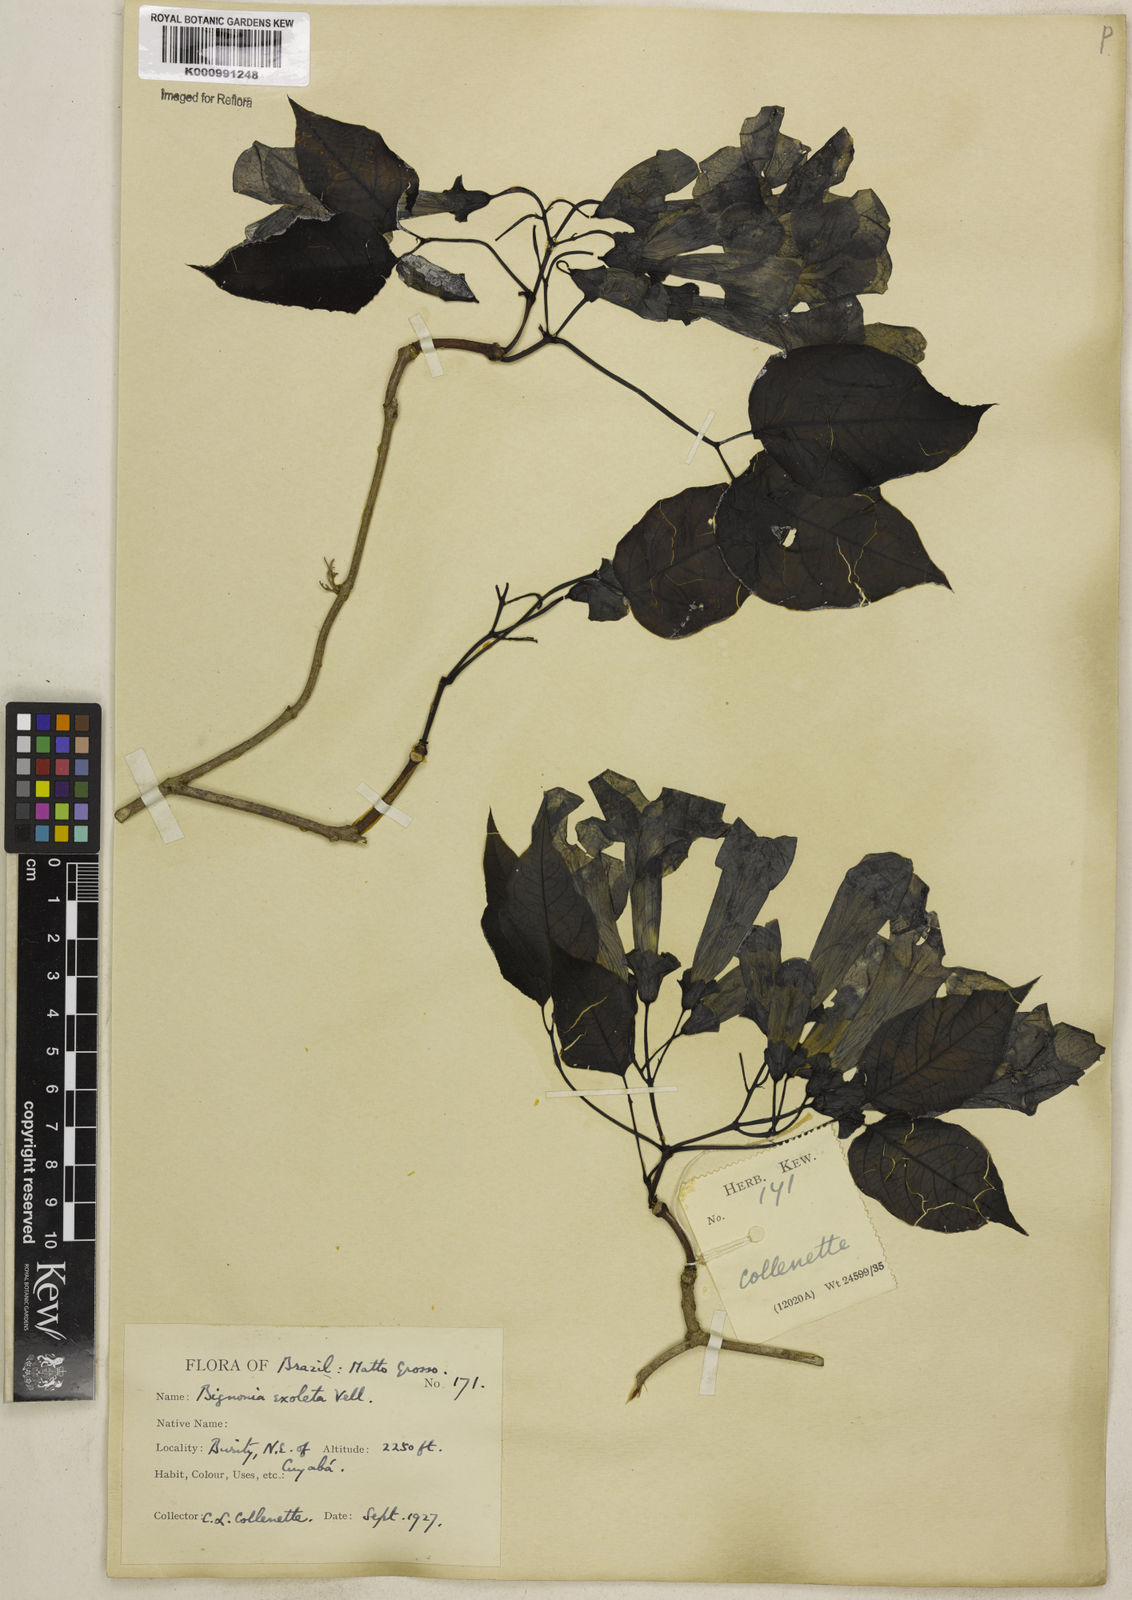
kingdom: Plantae
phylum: Tracheophyta
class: Magnoliopsida
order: Lamiales
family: Bignoniaceae
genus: Dolichandra
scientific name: Dolichandra unguis-cati
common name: Catclaw vine
